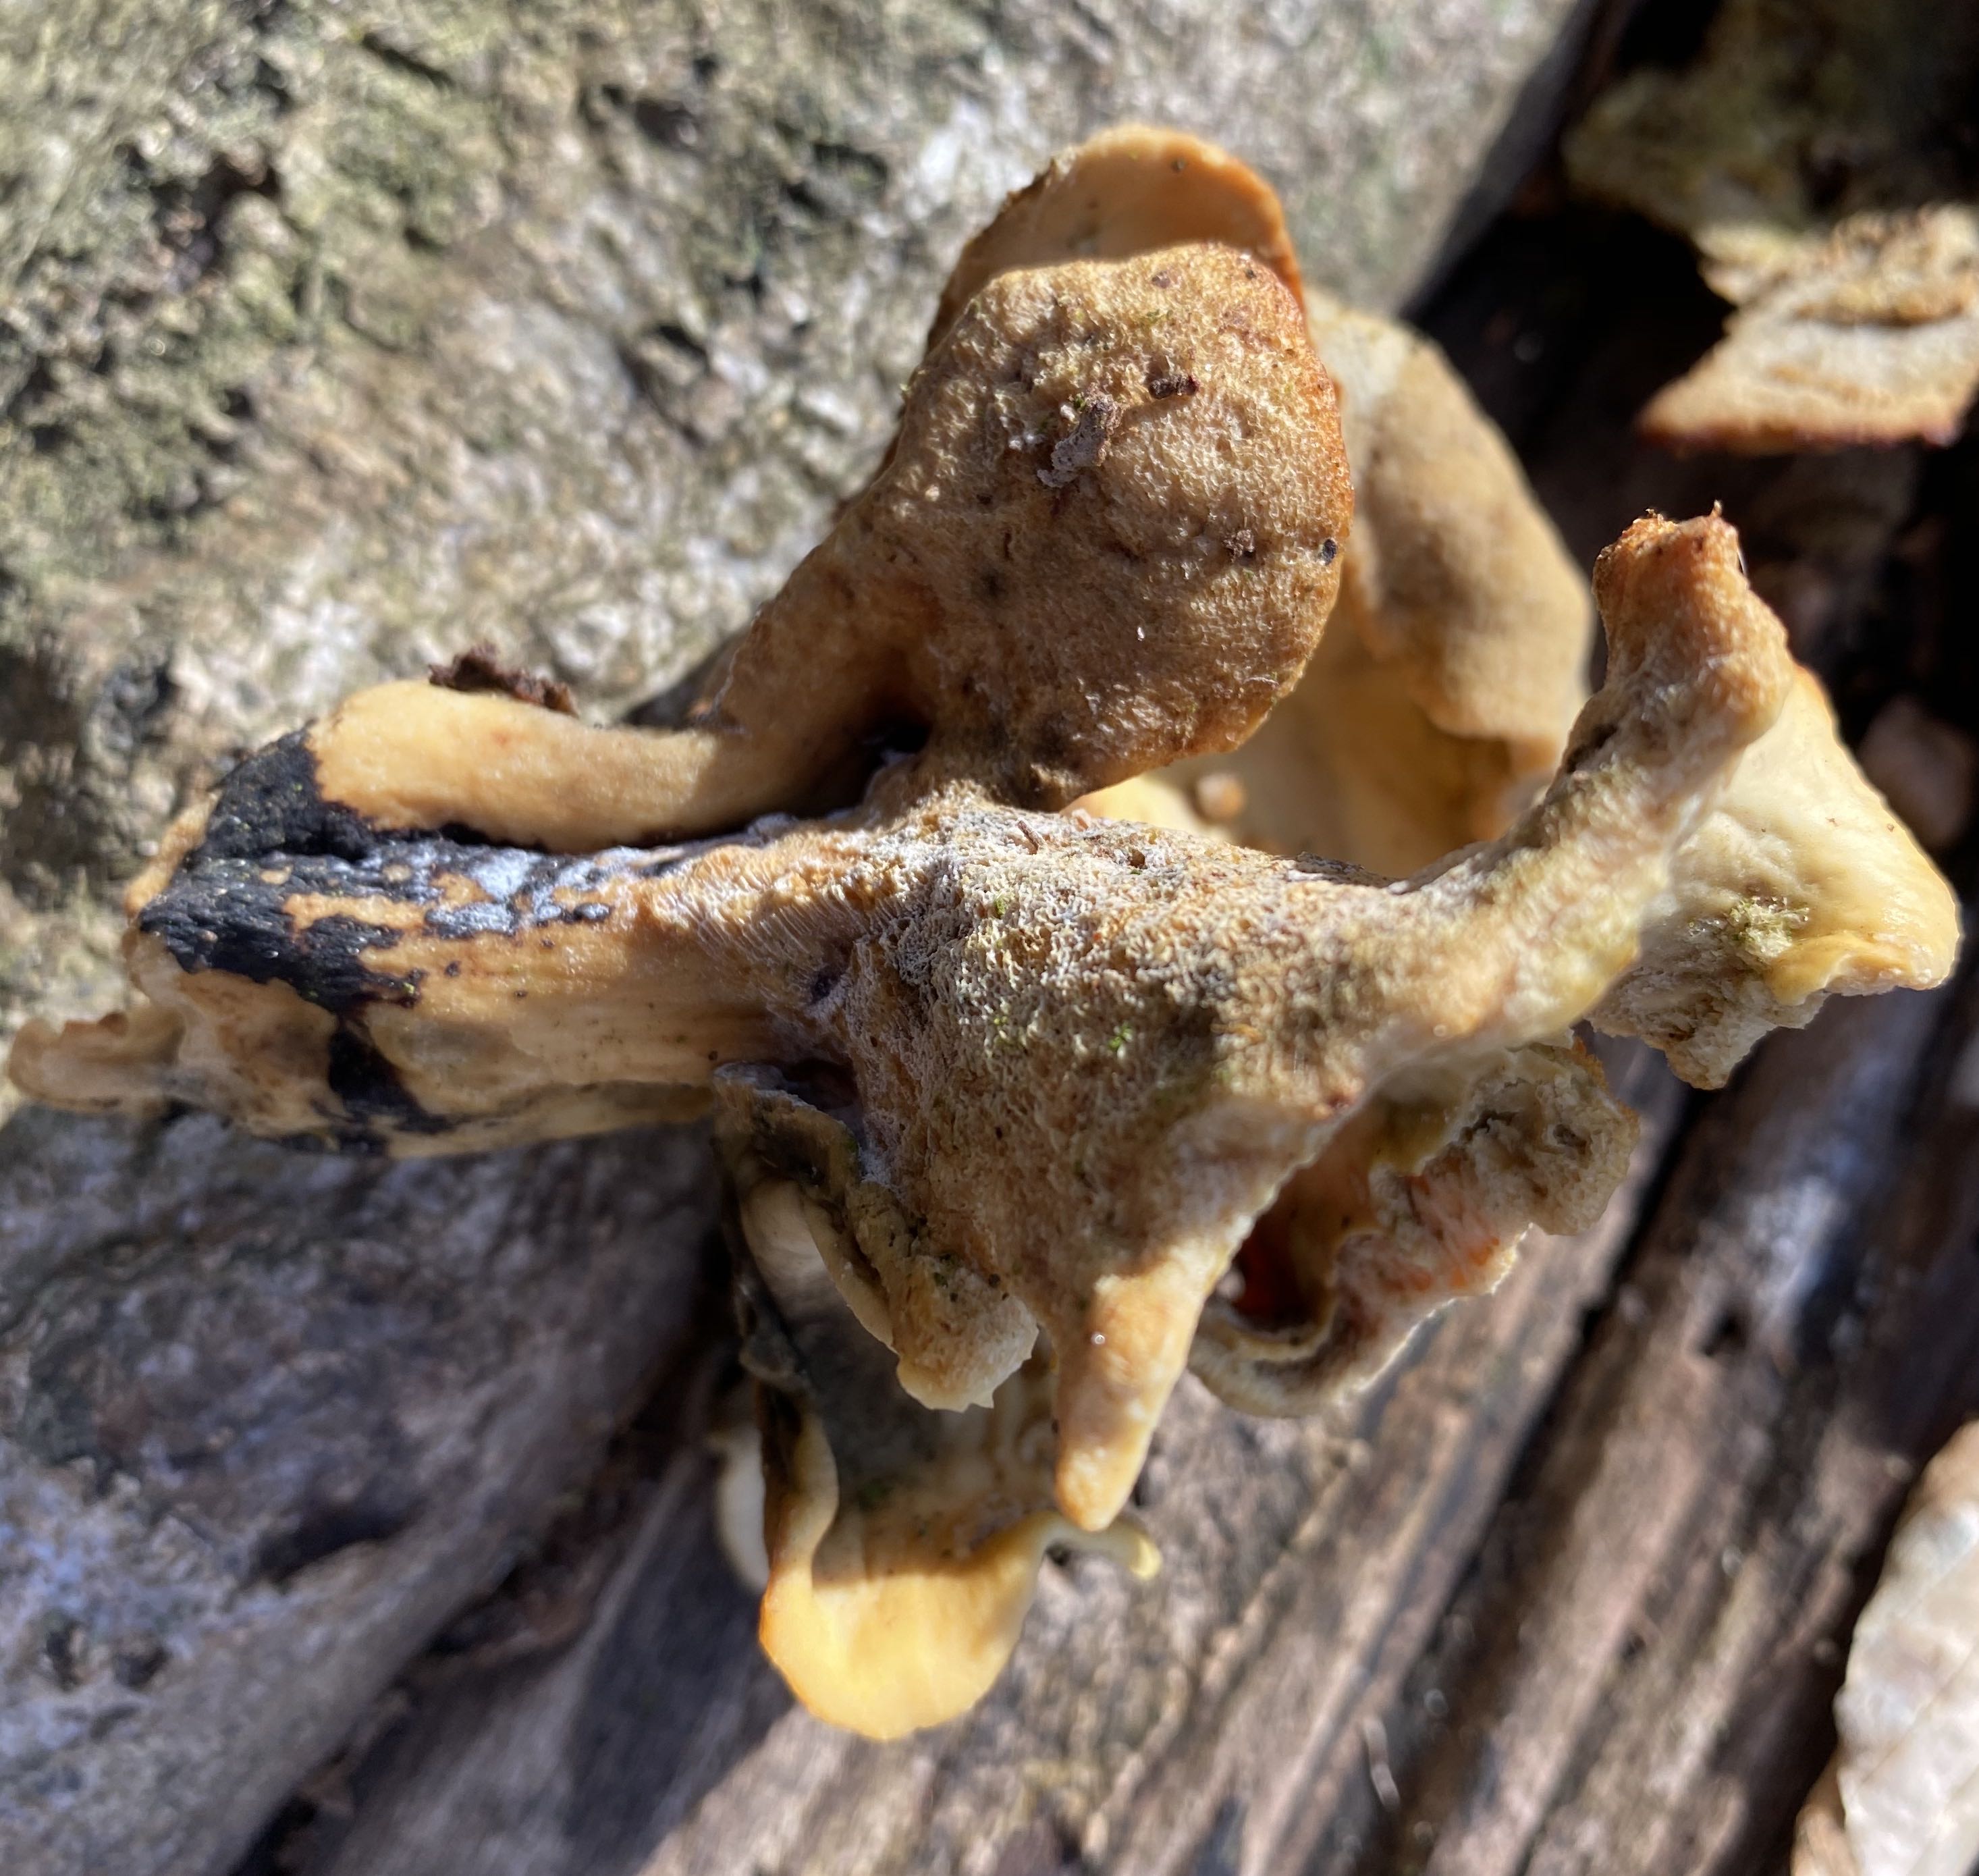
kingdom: Fungi
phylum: Basidiomycota
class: Agaricomycetes
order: Polyporales
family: Polyporaceae
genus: Cerioporus
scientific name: Cerioporus varius
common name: foranderlig stilkporesvamp
